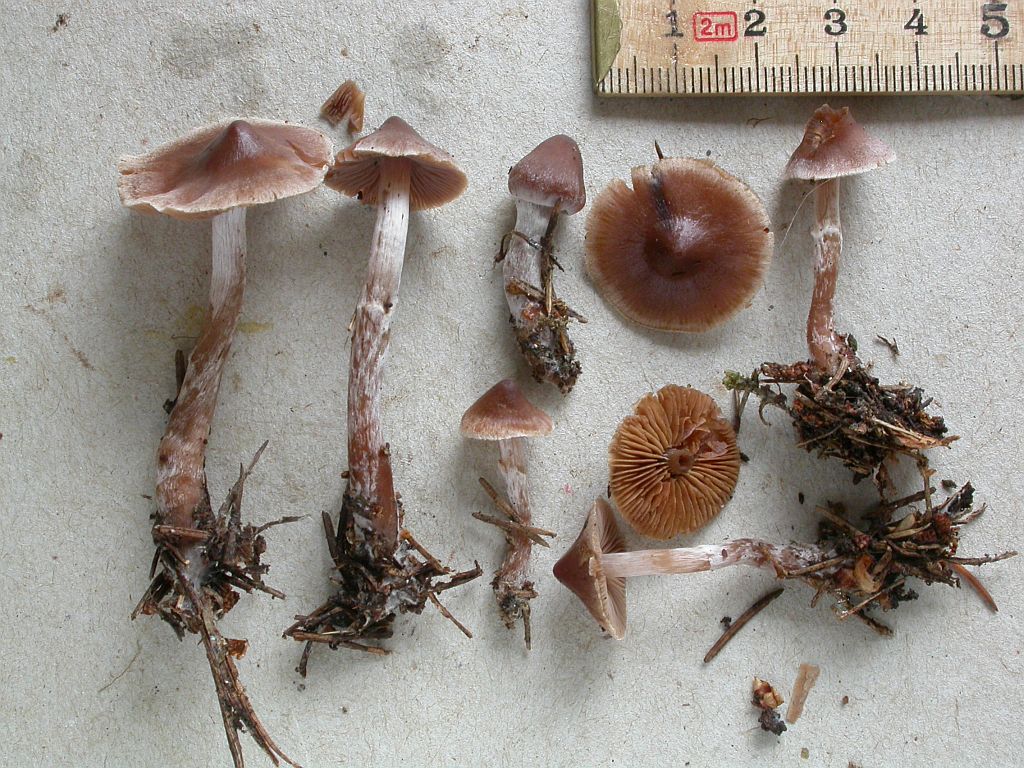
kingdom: Fungi
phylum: Basidiomycota
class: Agaricomycetes
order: Agaricales
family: Cortinariaceae
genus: Cortinarius
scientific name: Cortinarius comptulus
